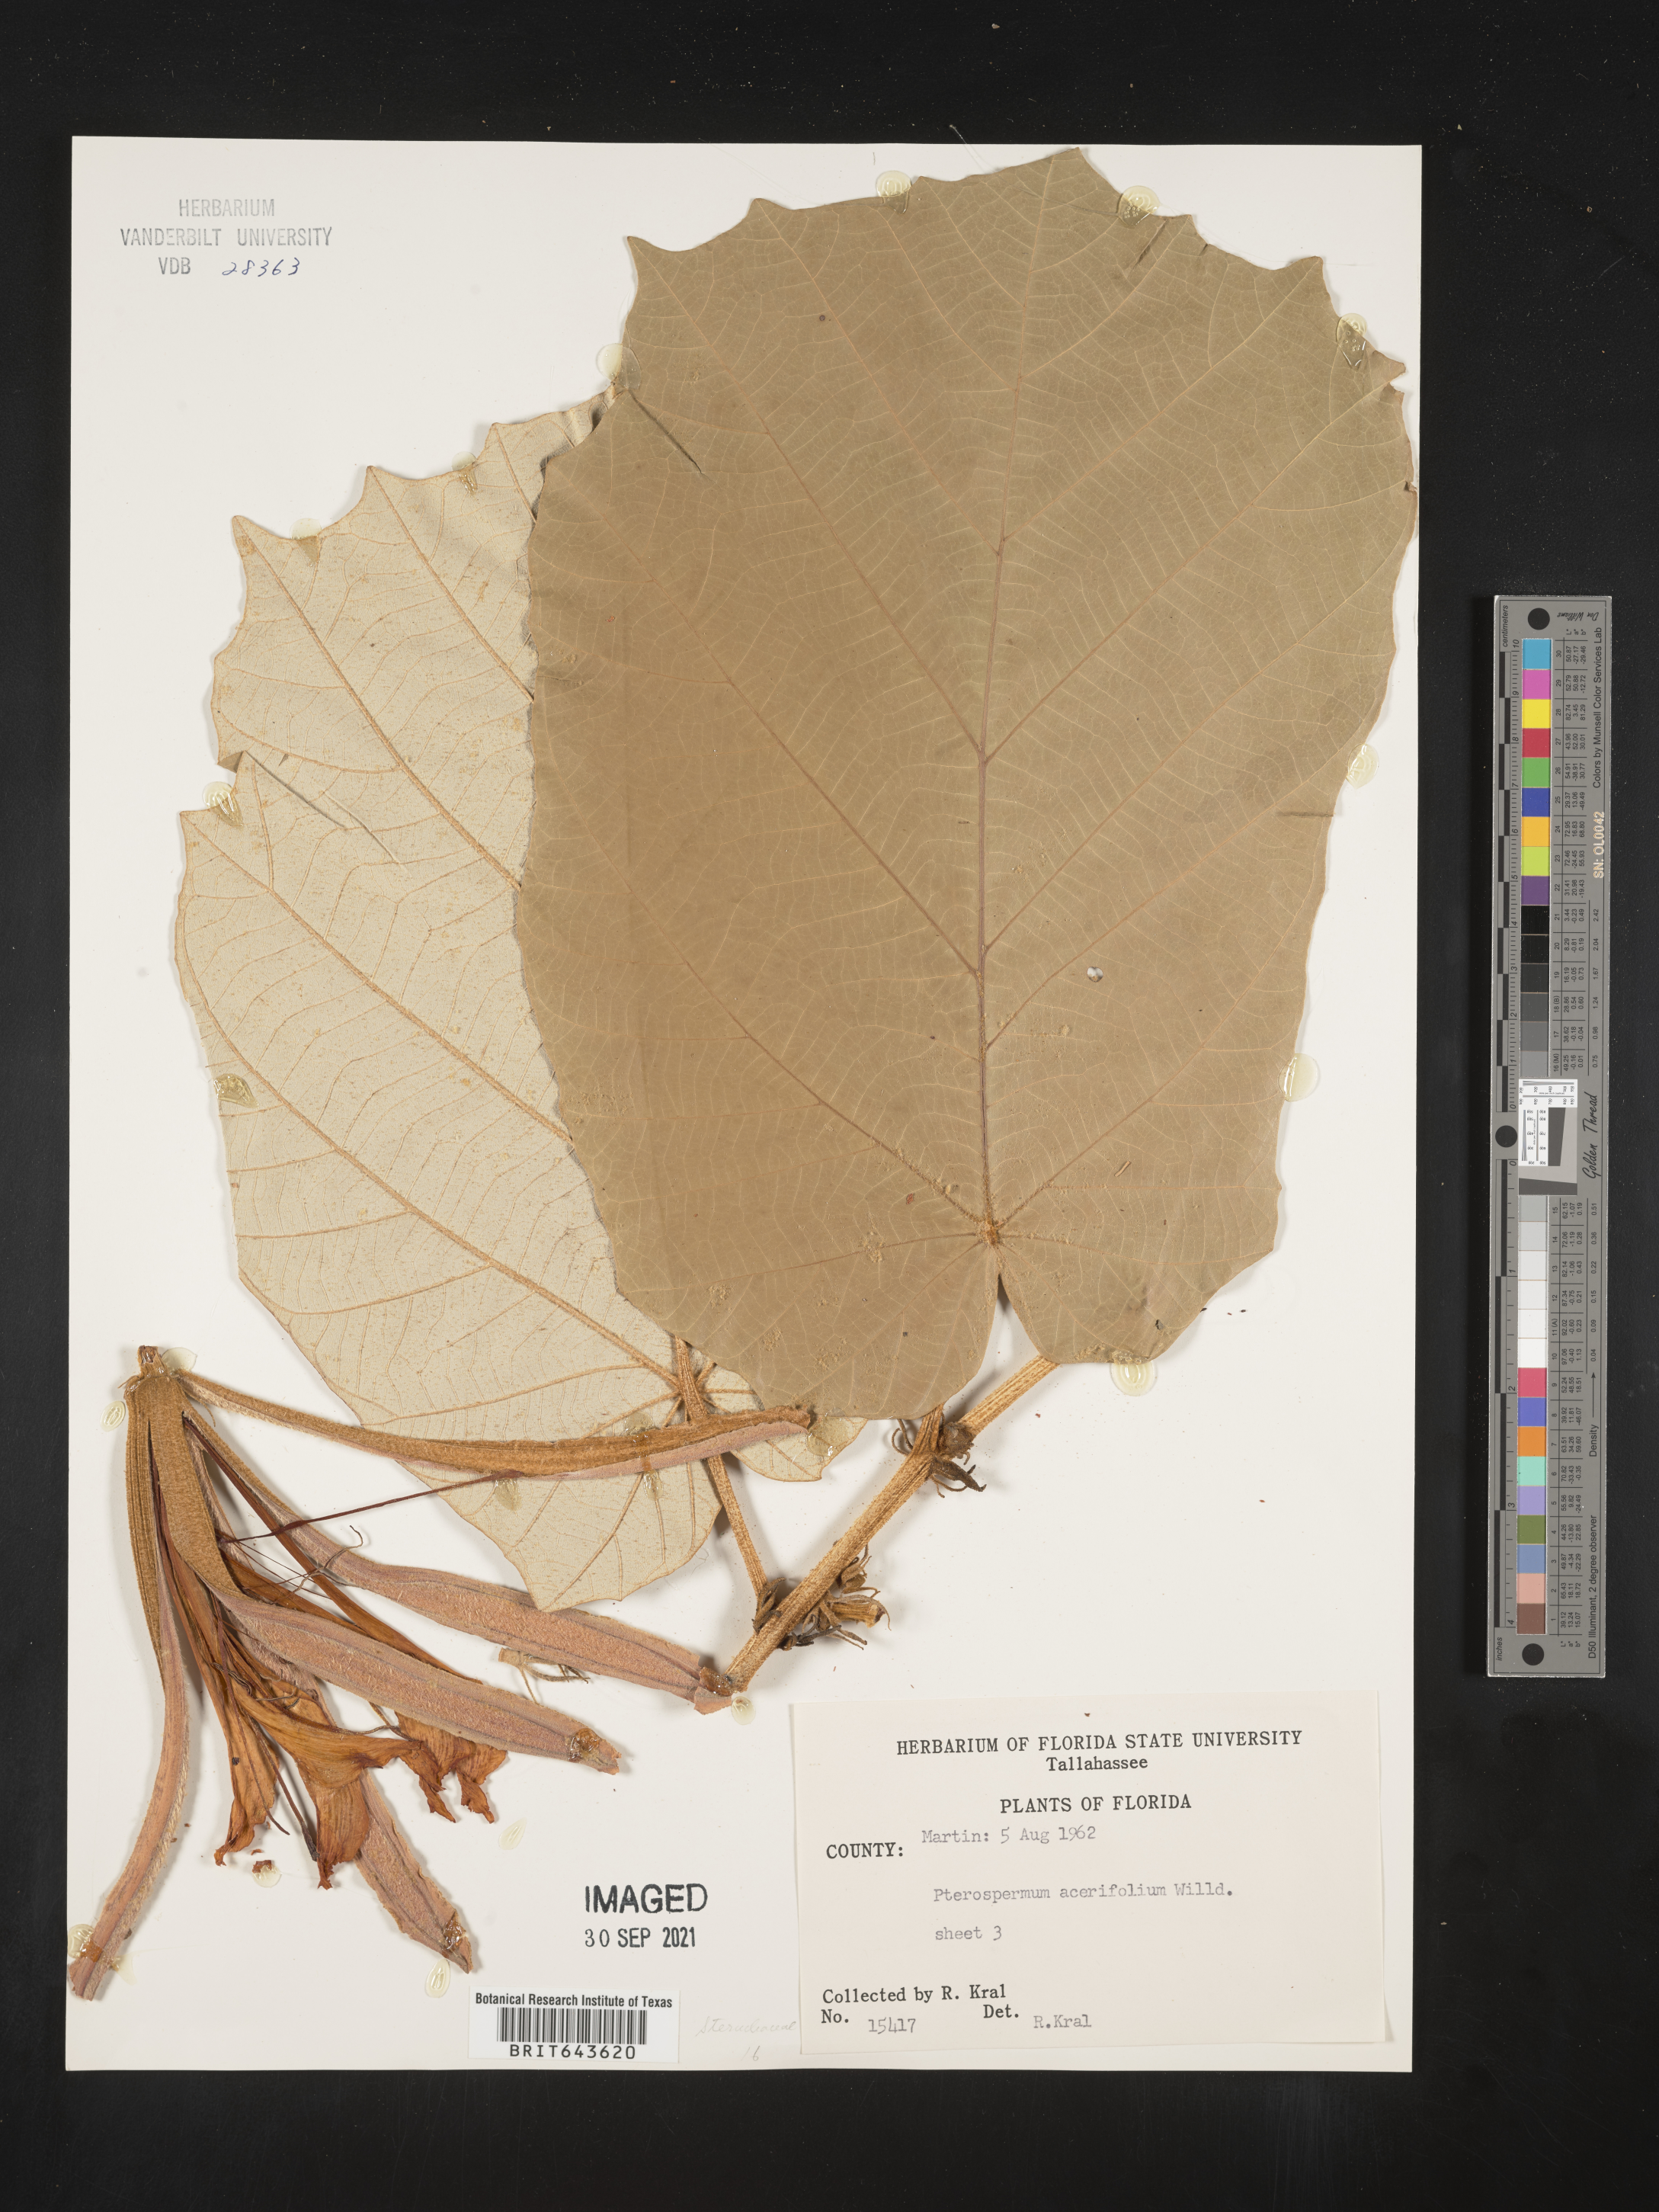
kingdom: Plantae
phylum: Tracheophyta
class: Magnoliopsida
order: Malvales
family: Malvaceae
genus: Pterospermum
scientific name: Pterospermum
